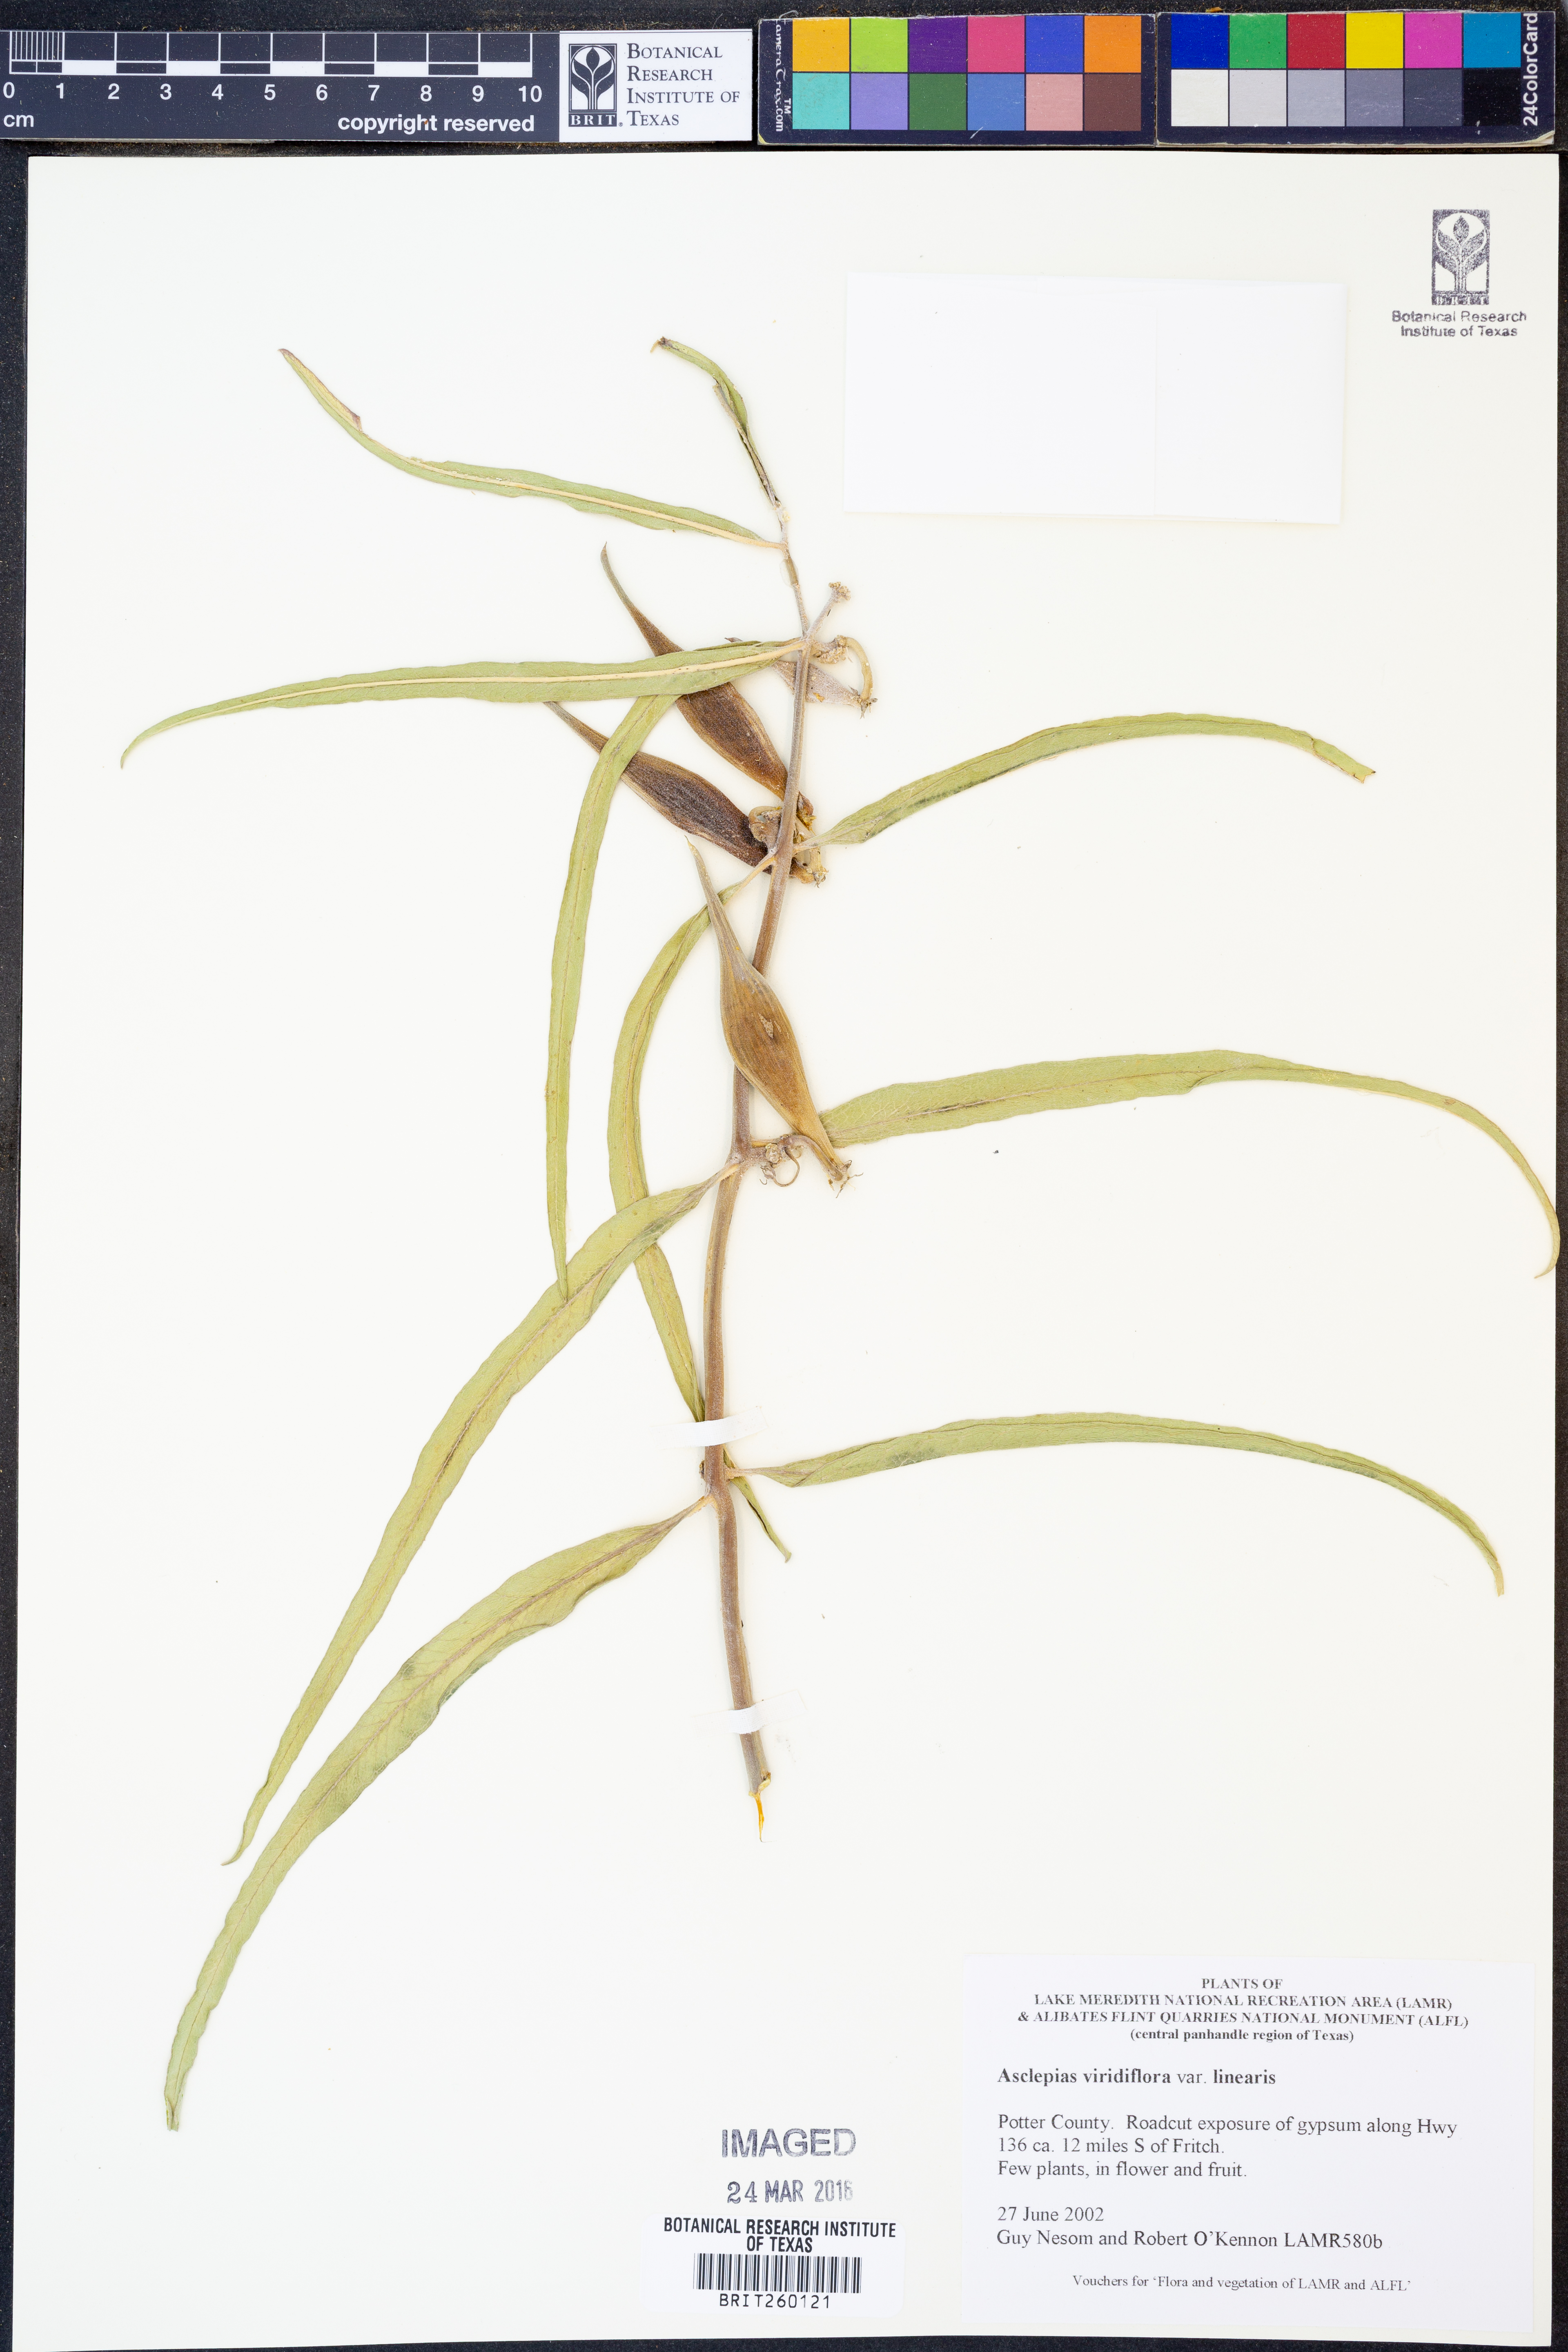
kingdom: Plantae
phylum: Tracheophyta
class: Magnoliopsida
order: Gentianales
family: Apocynaceae
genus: Asclepias
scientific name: Asclepias linearis
